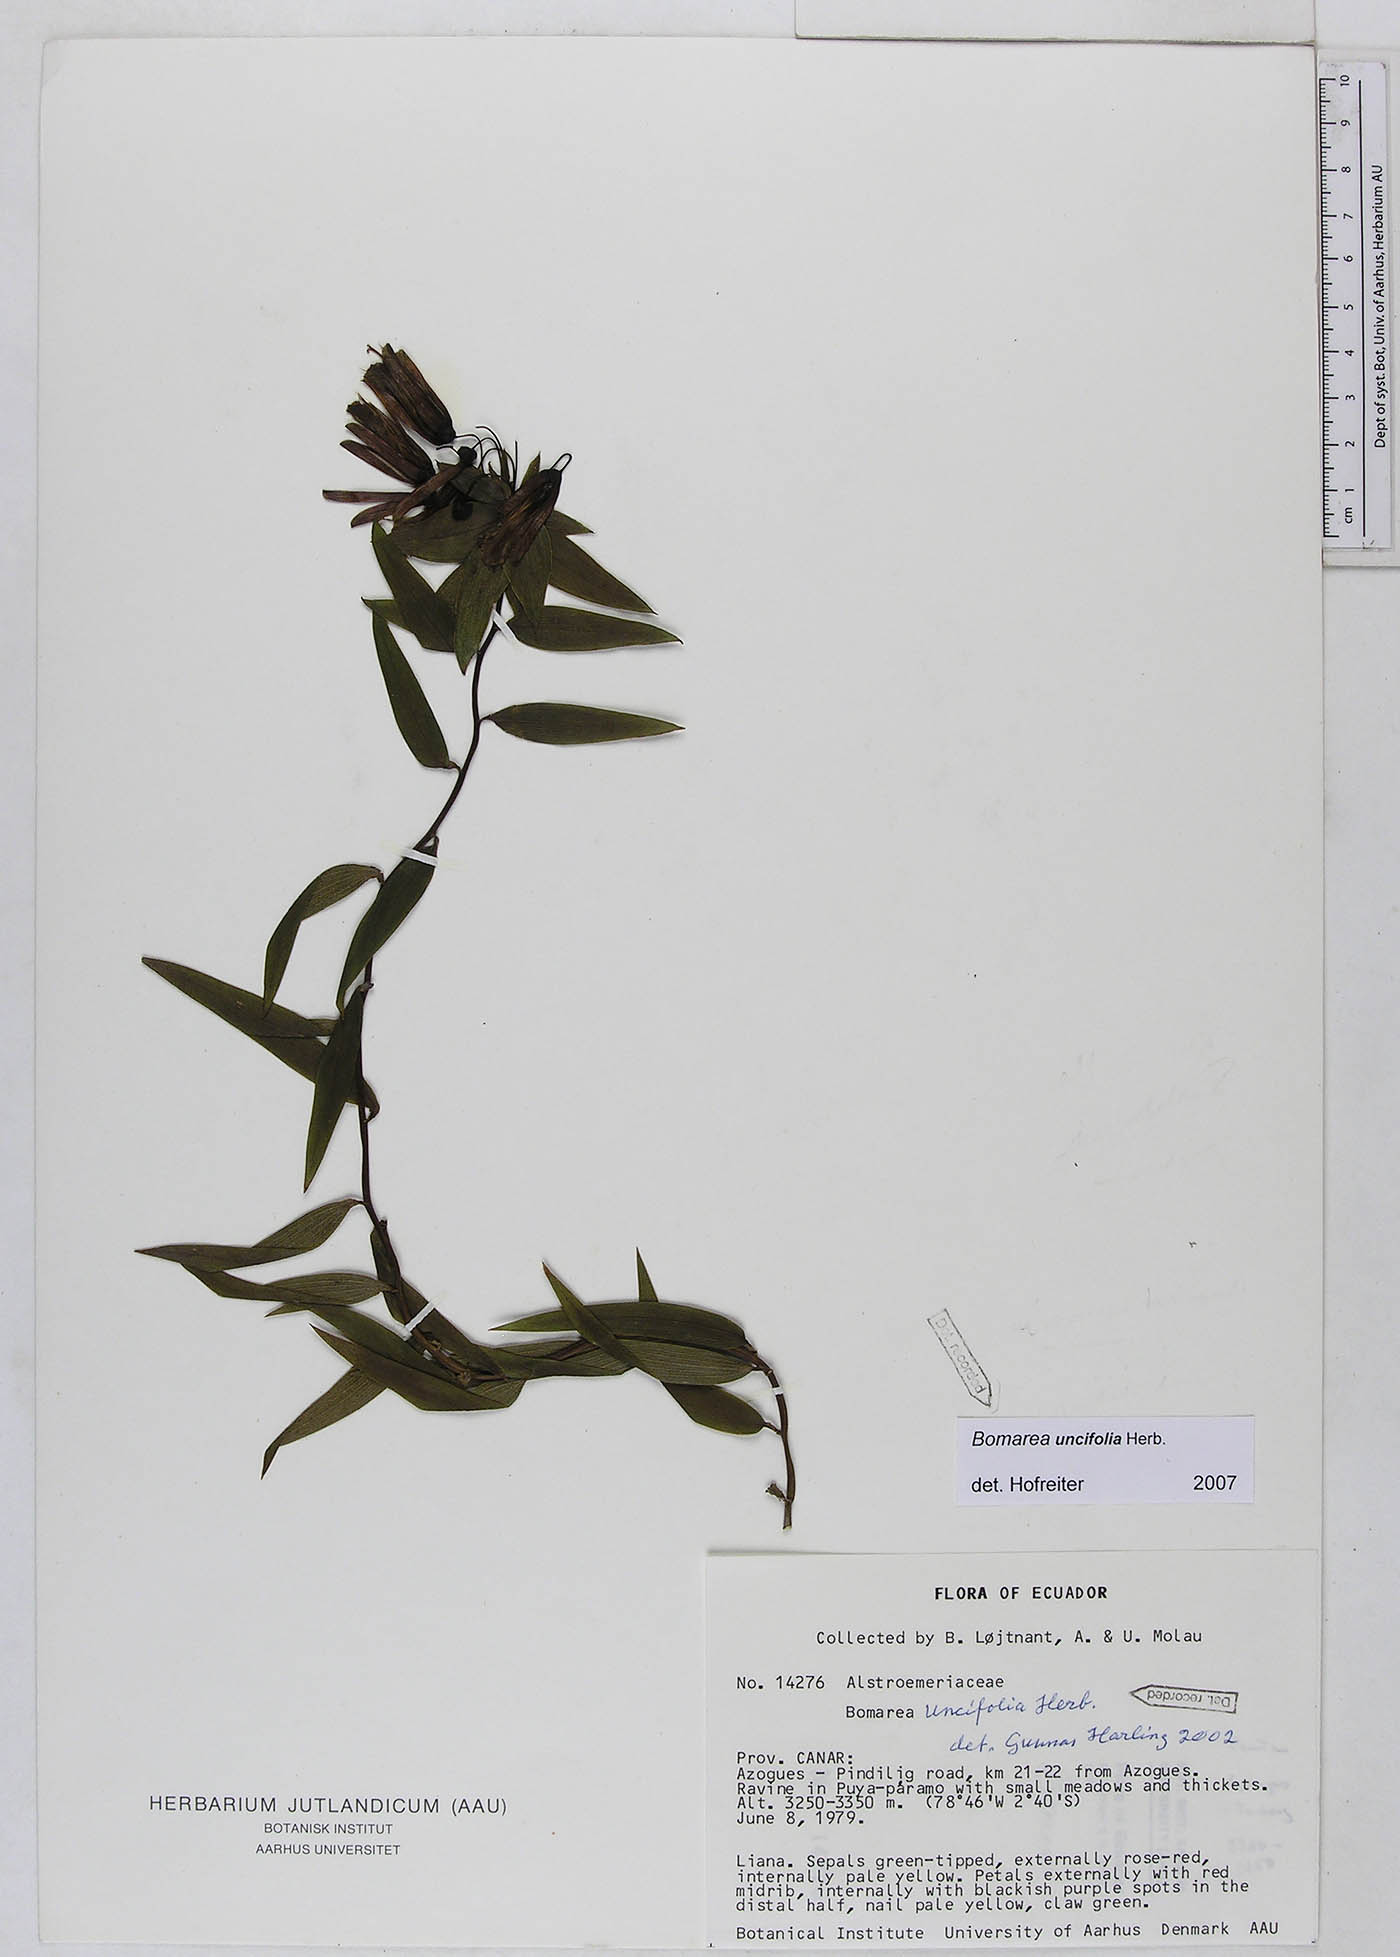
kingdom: Plantae
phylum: Tracheophyta
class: Liliopsida
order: Liliales
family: Alstroemeriaceae
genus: Bomarea
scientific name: Bomarea uncifolia
